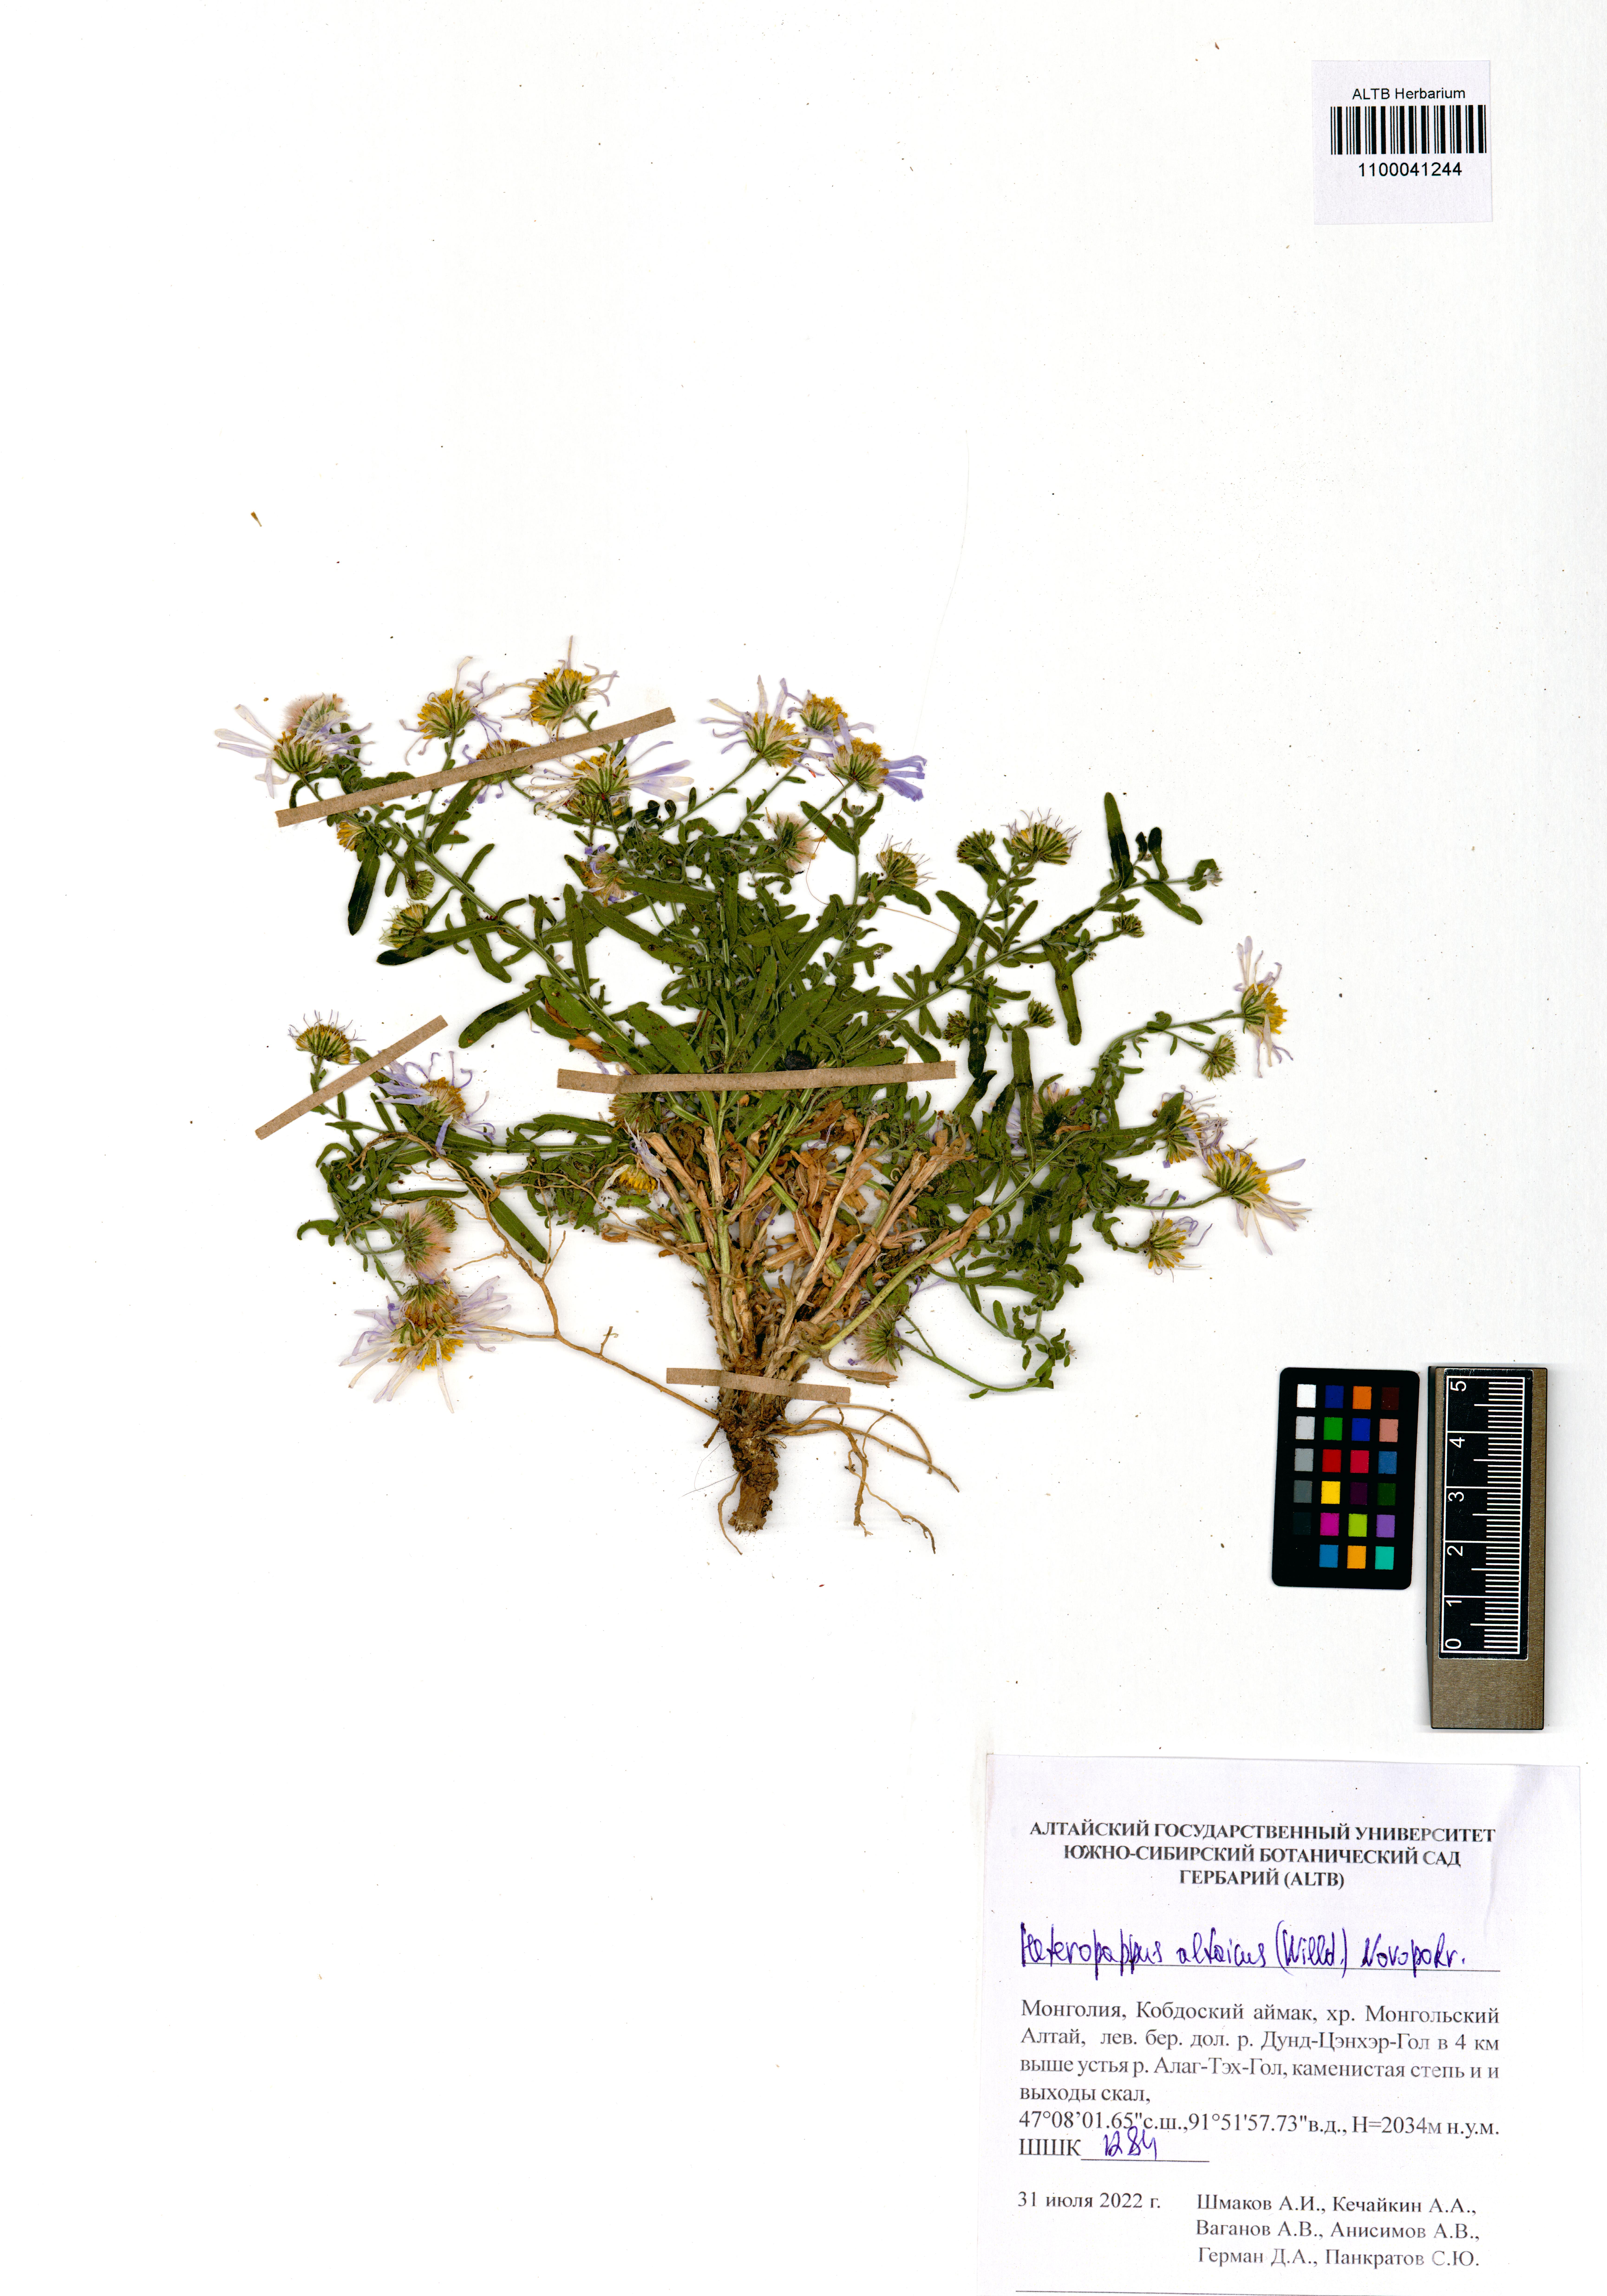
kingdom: Plantae
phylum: Tracheophyta
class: Magnoliopsida
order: Asterales
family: Asteraceae
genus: Heteropappus
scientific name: Heteropappus altaicus
